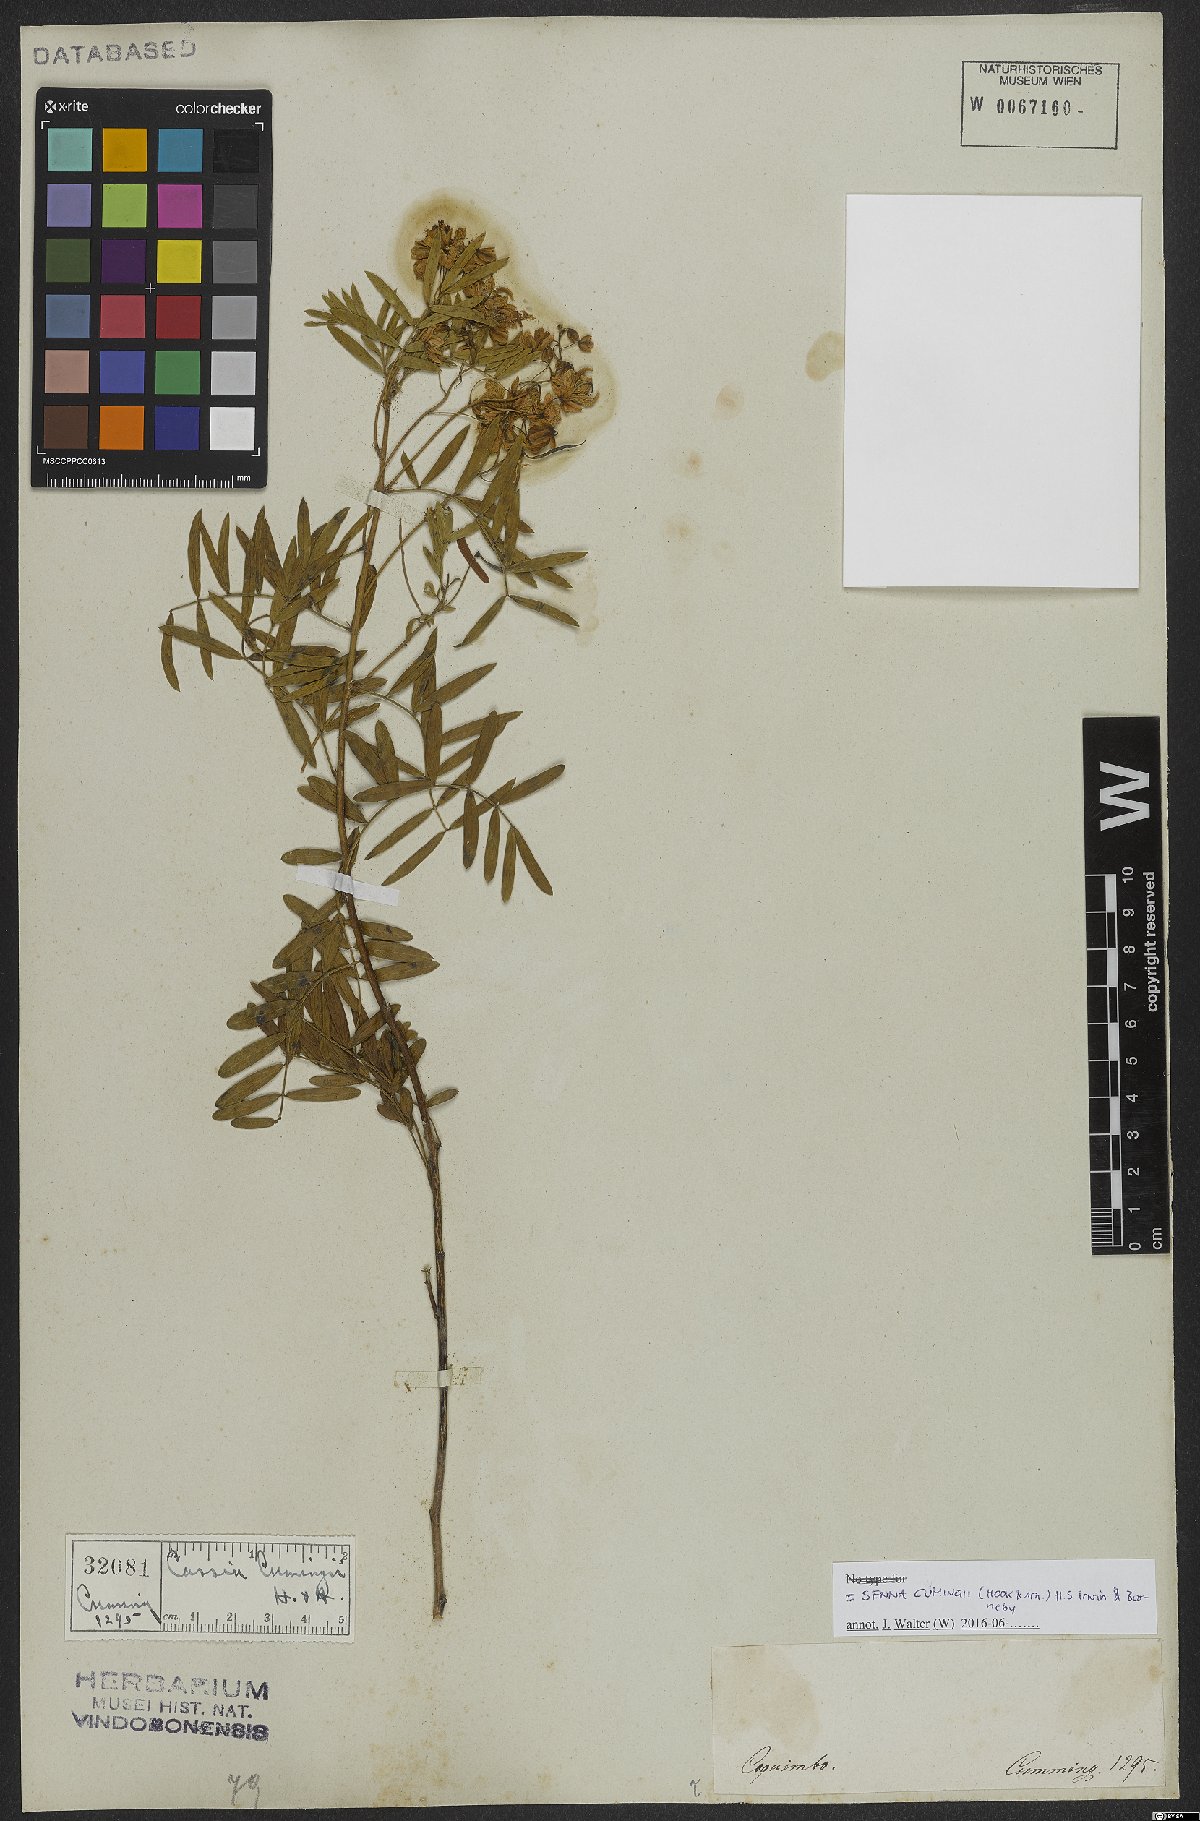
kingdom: Plantae
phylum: Tracheophyta
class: Magnoliopsida
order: Fabales
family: Fabaceae
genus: Senna
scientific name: Senna cumingii
